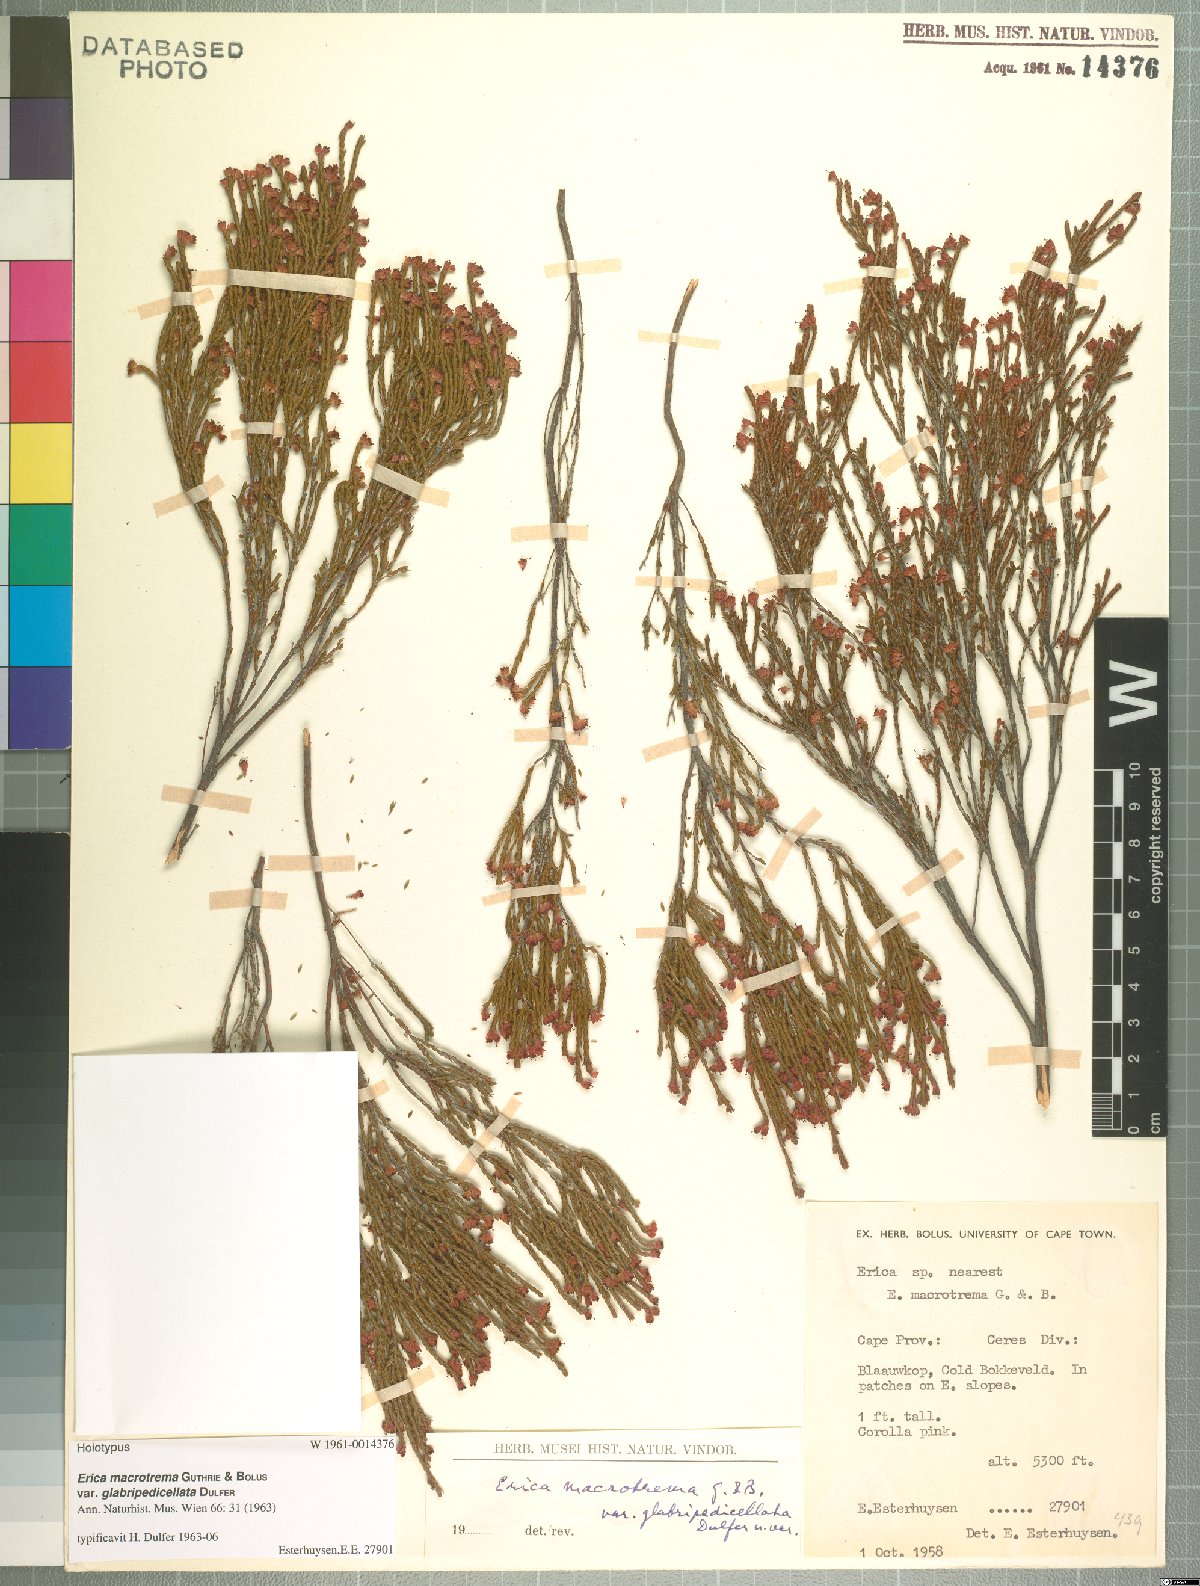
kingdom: Plantae
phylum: Tracheophyta
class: Magnoliopsida
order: Ericales
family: Ericaceae
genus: Erica
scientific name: Erica macrotrema
